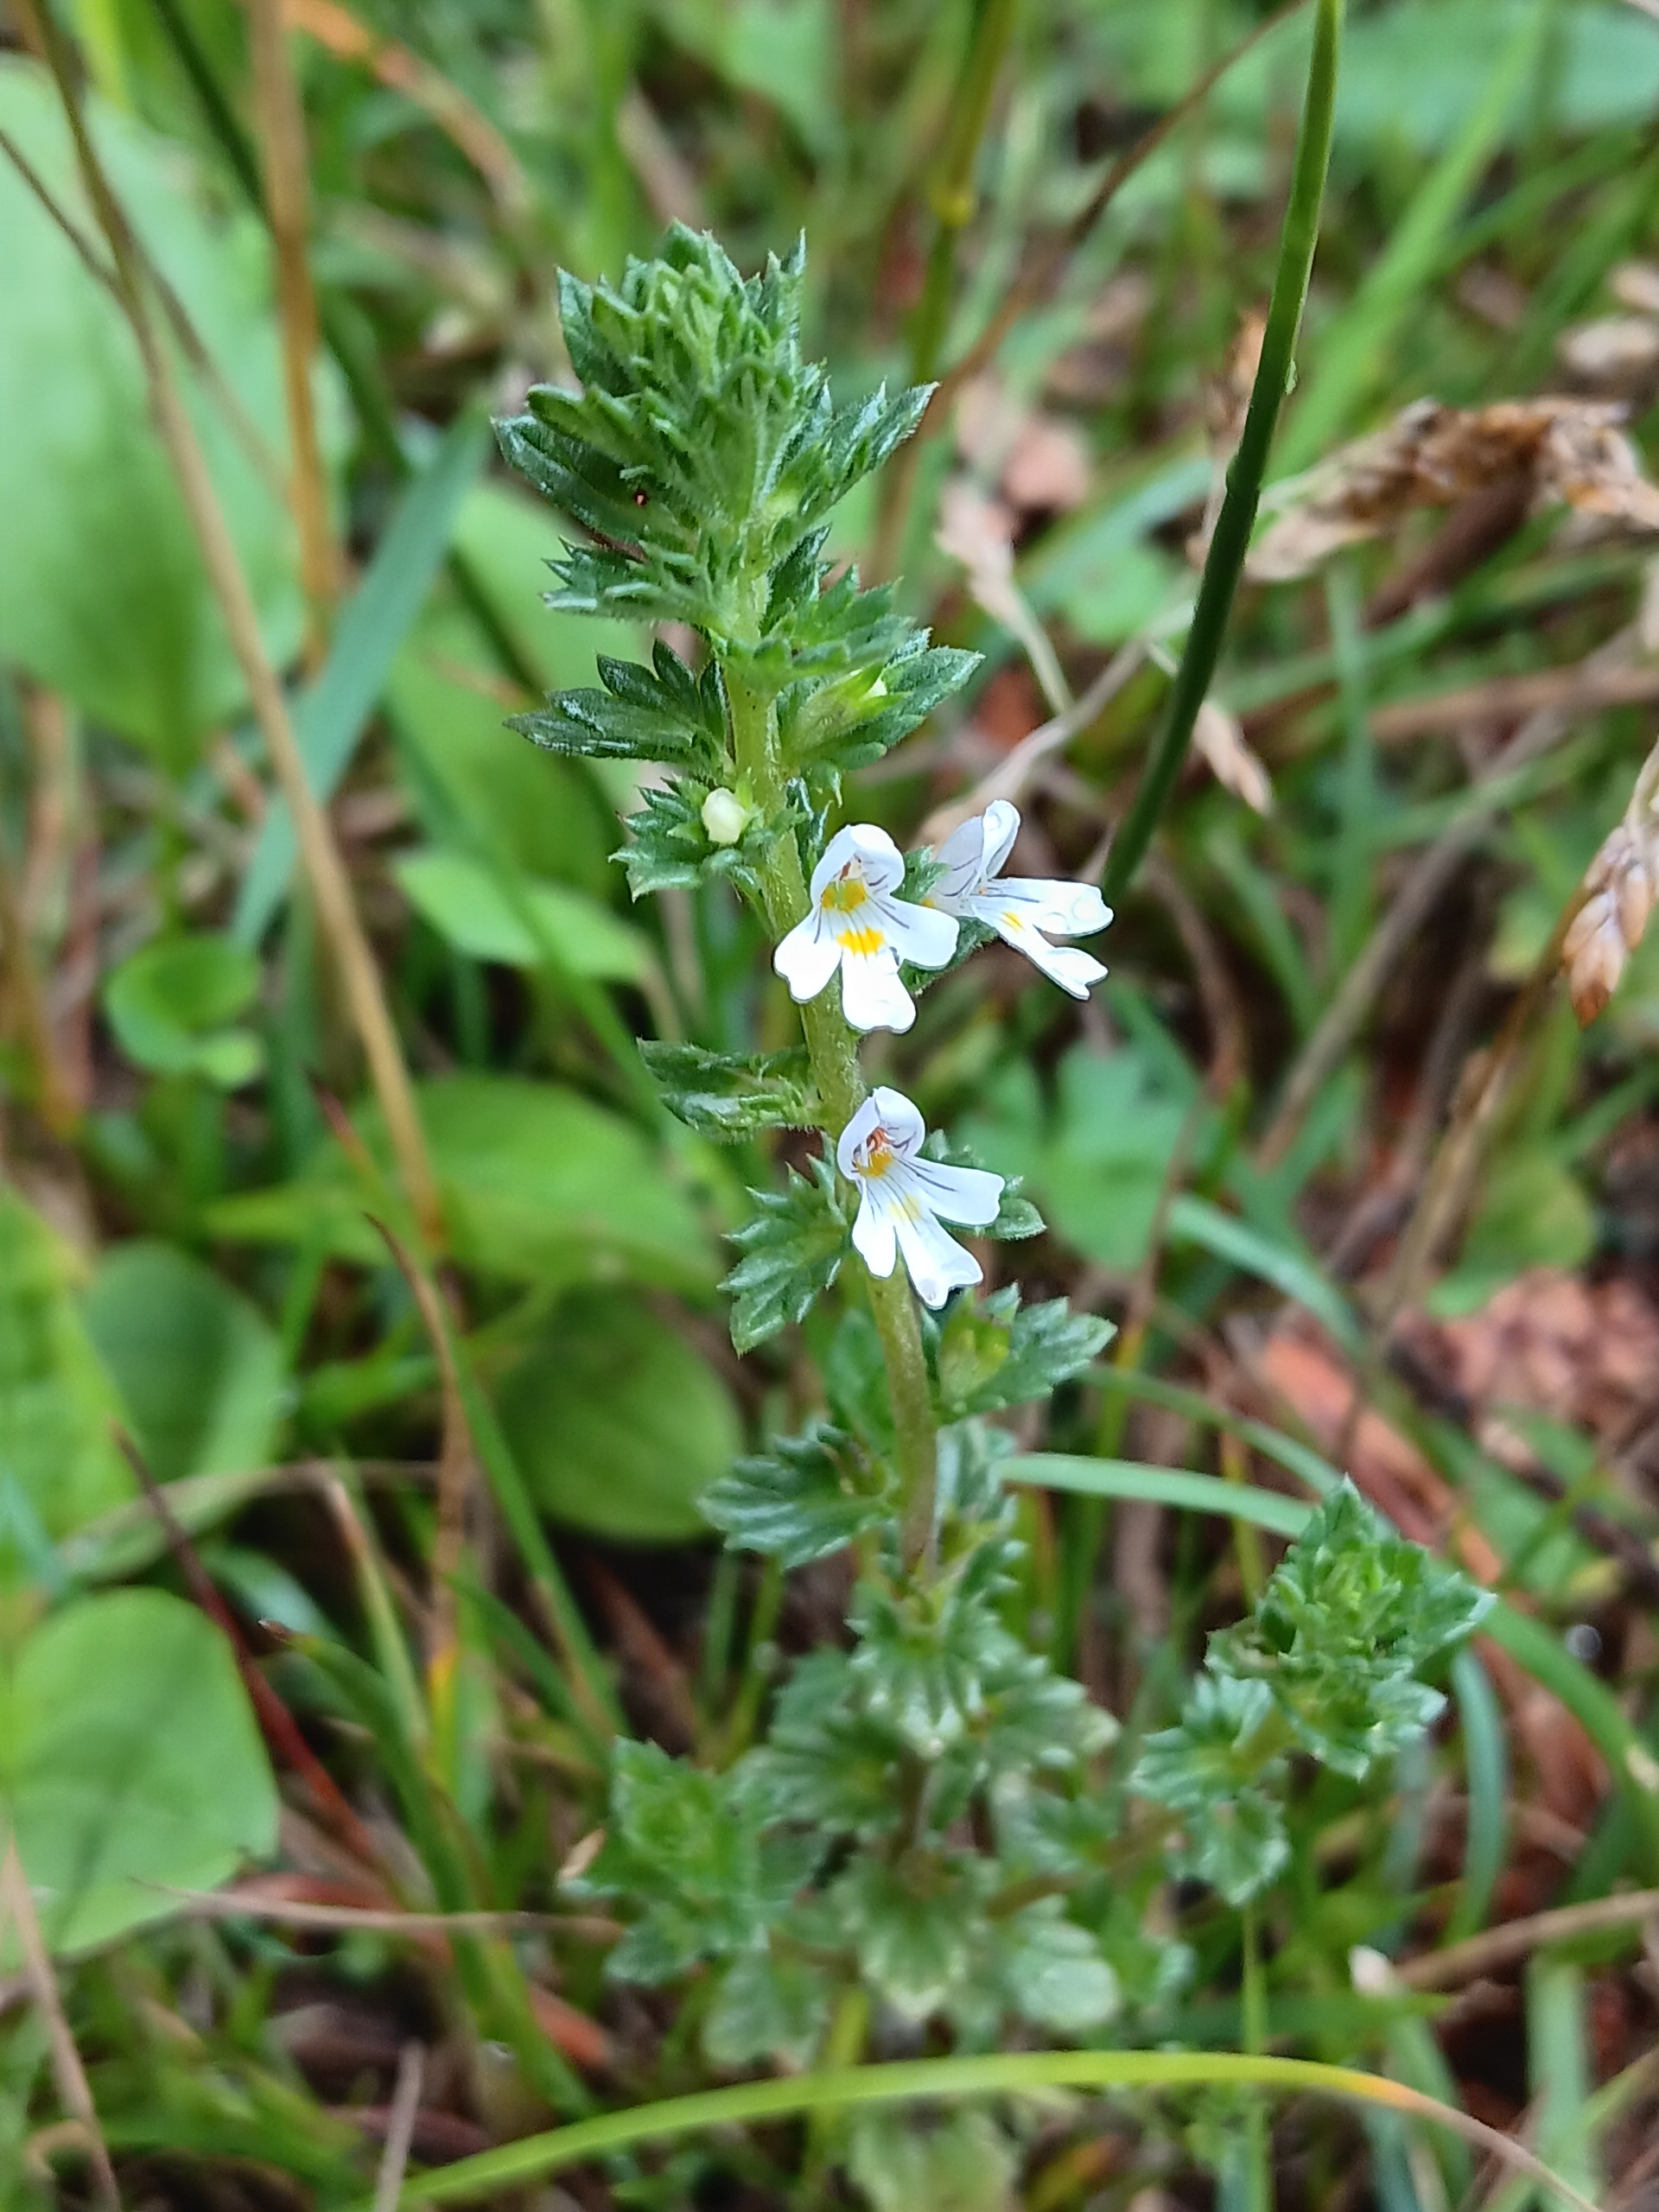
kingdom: Plantae
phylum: Tracheophyta
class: Magnoliopsida
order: Lamiales
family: Orobanchaceae
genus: Euphrasia
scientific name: Euphrasia nemorosa
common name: Kort øjentrøst
